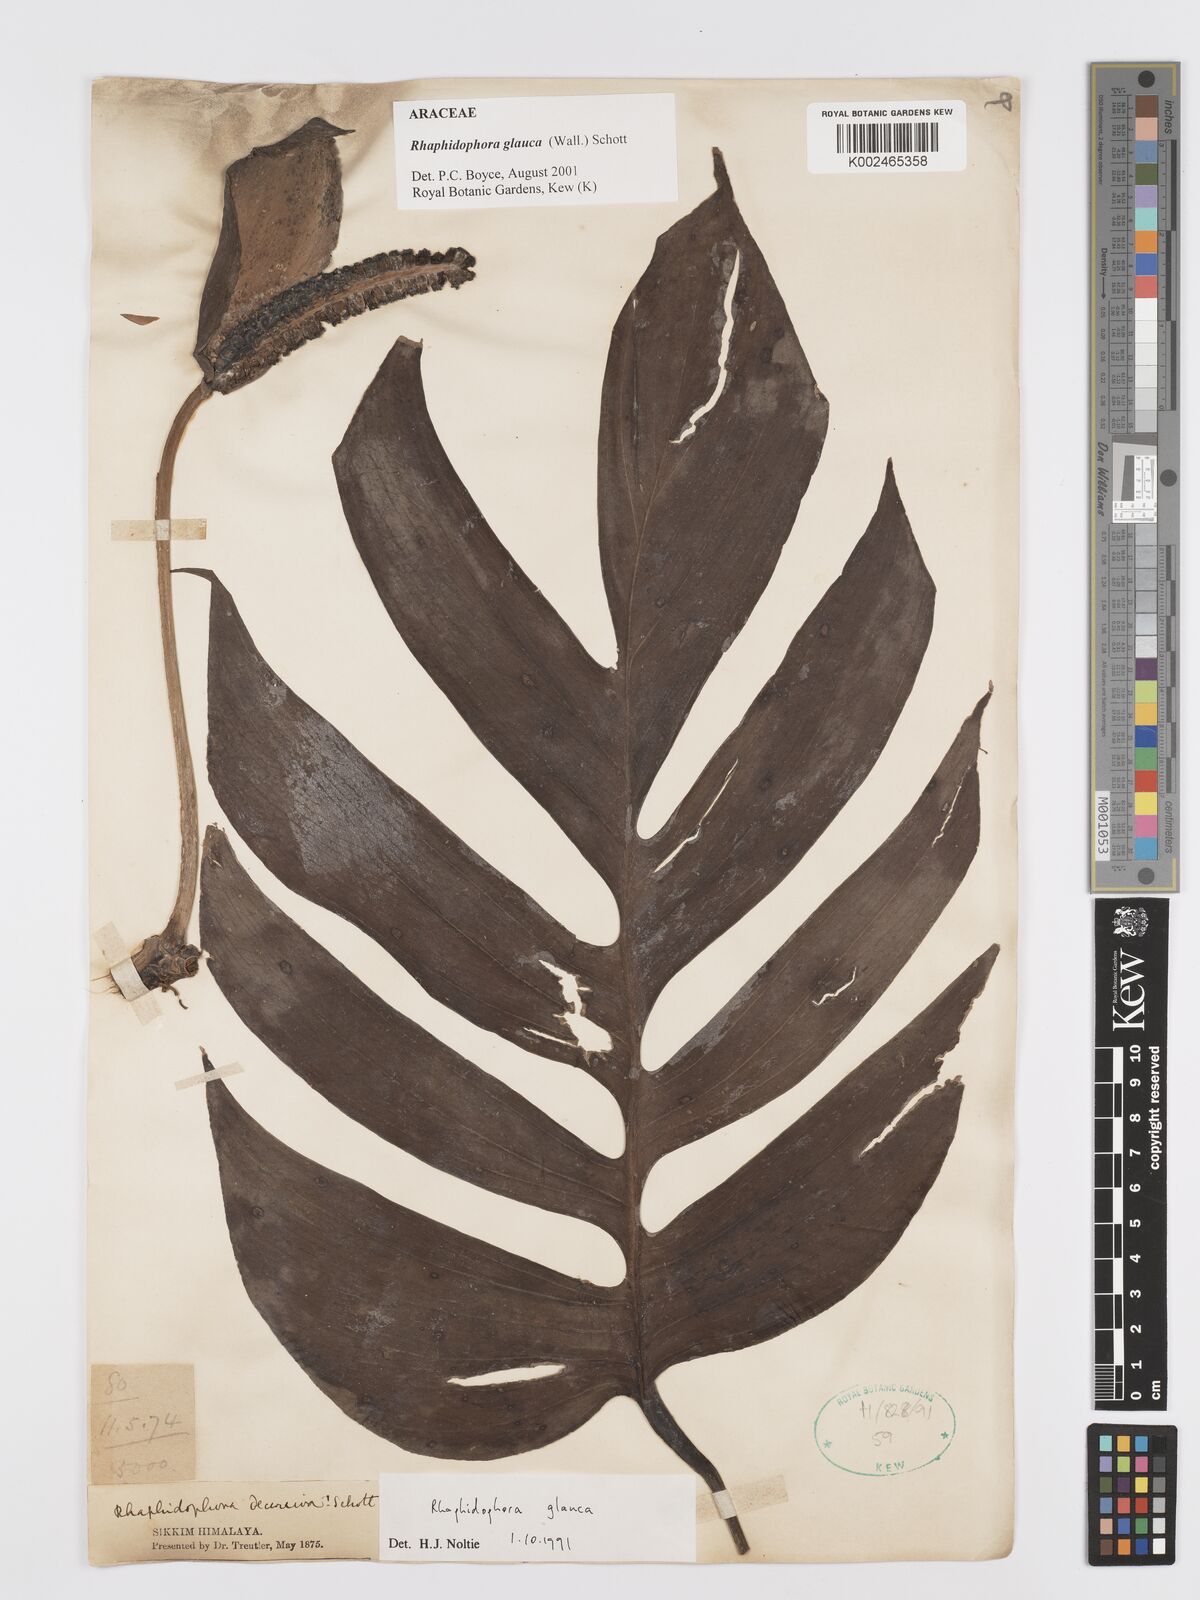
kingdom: Plantae
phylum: Tracheophyta
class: Liliopsida
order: Alismatales
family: Araceae
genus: Rhaphidophora
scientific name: Rhaphidophora glauca
